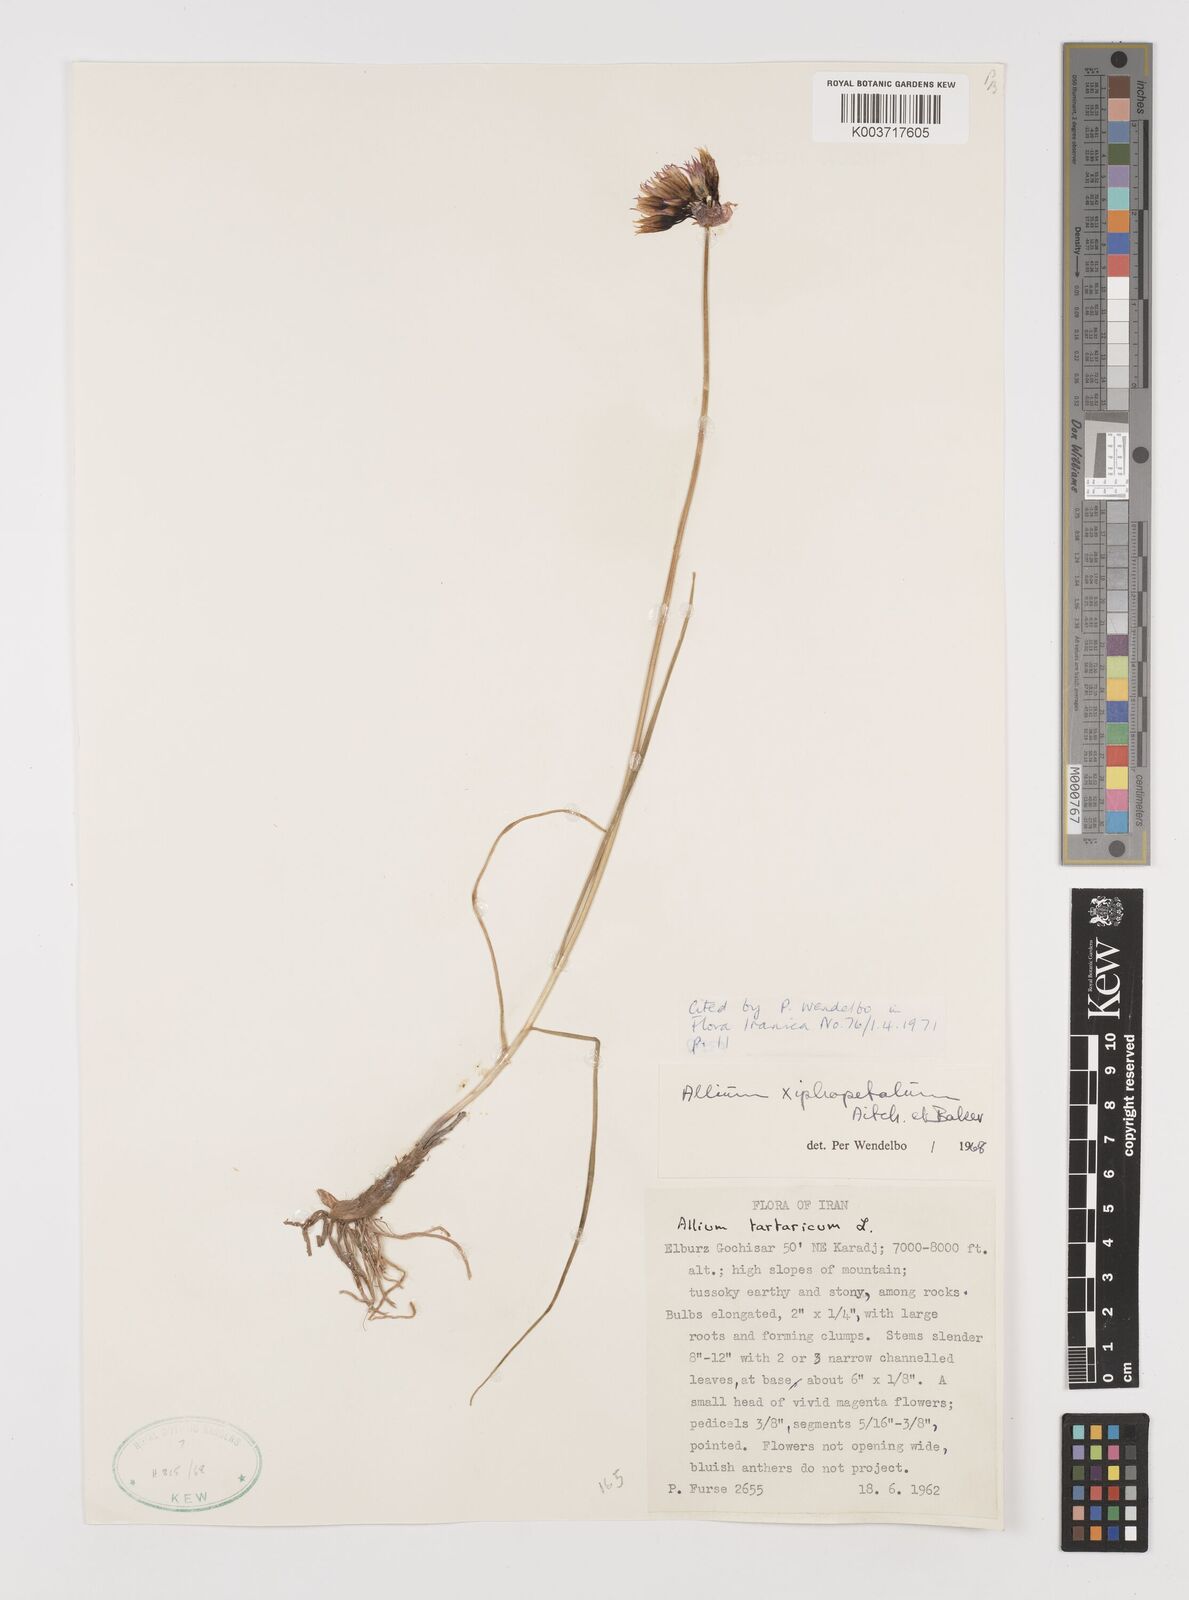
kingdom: Plantae
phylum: Tracheophyta
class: Liliopsida
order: Asparagales
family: Amaryllidaceae
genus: Allium
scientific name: Allium xiphopetalum
